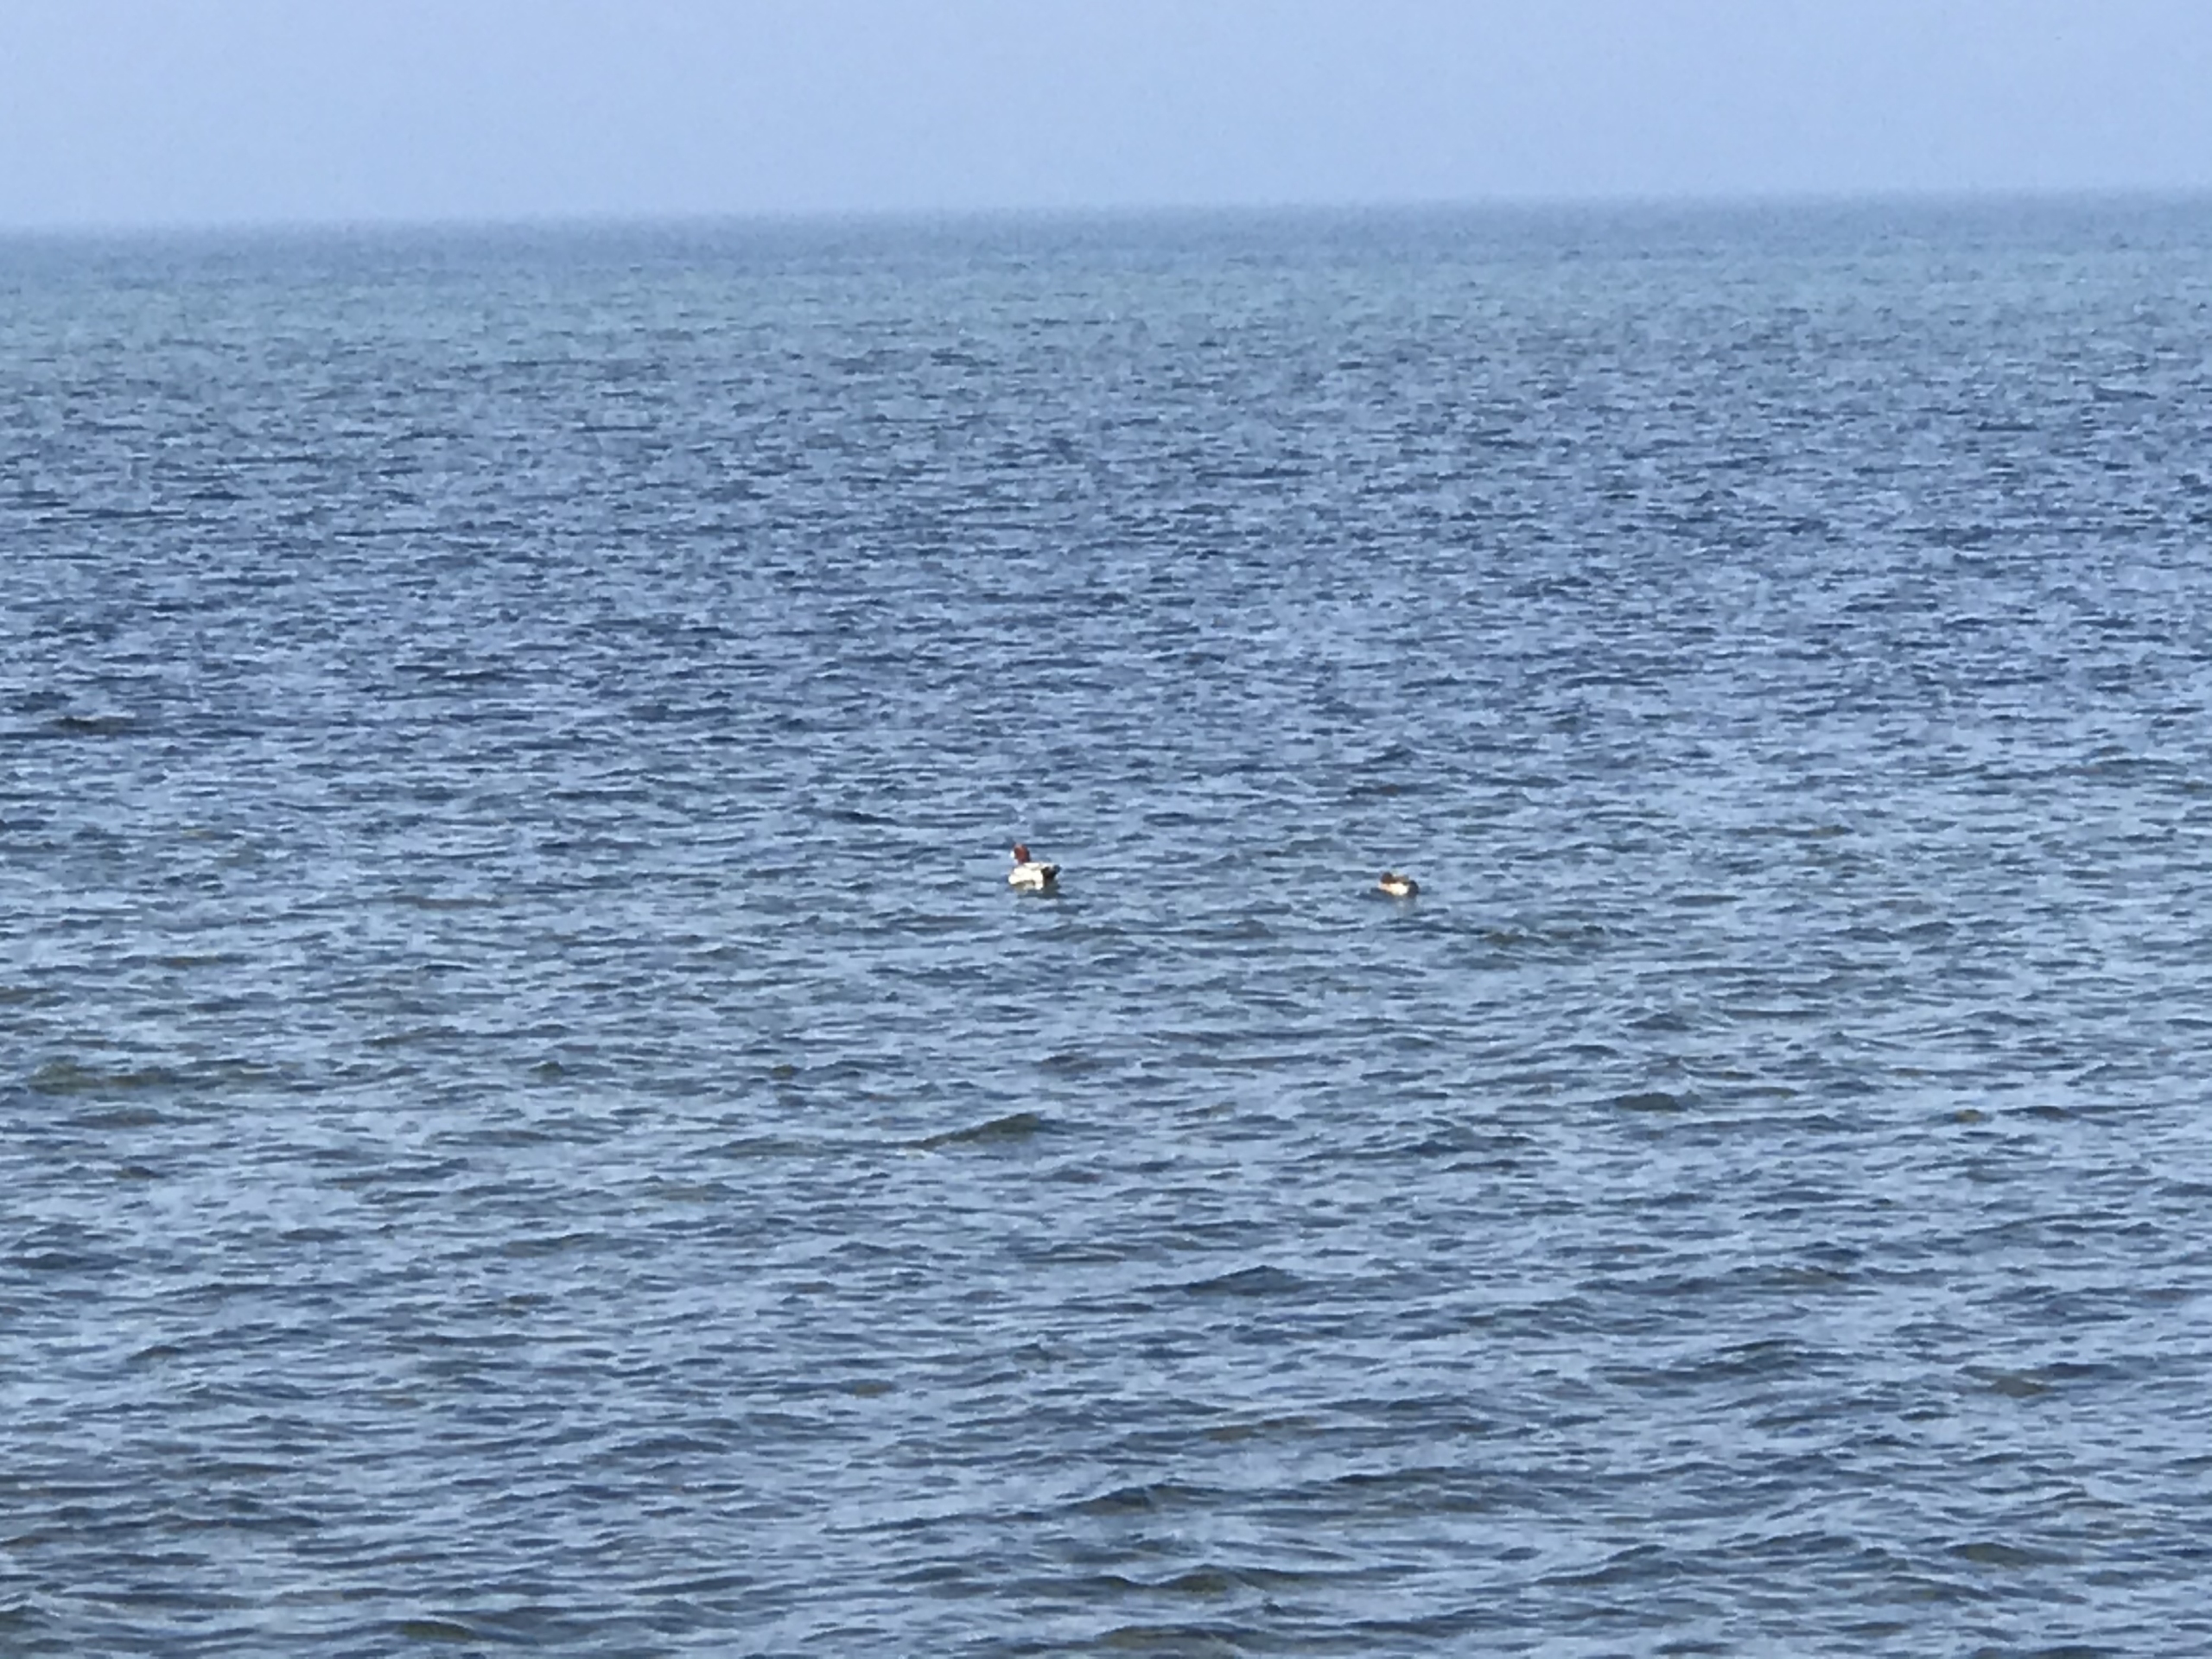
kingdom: Animalia
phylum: Chordata
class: Aves
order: Anseriformes
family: Anatidae
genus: Mareca
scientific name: Mareca penelope
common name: Pibeand
